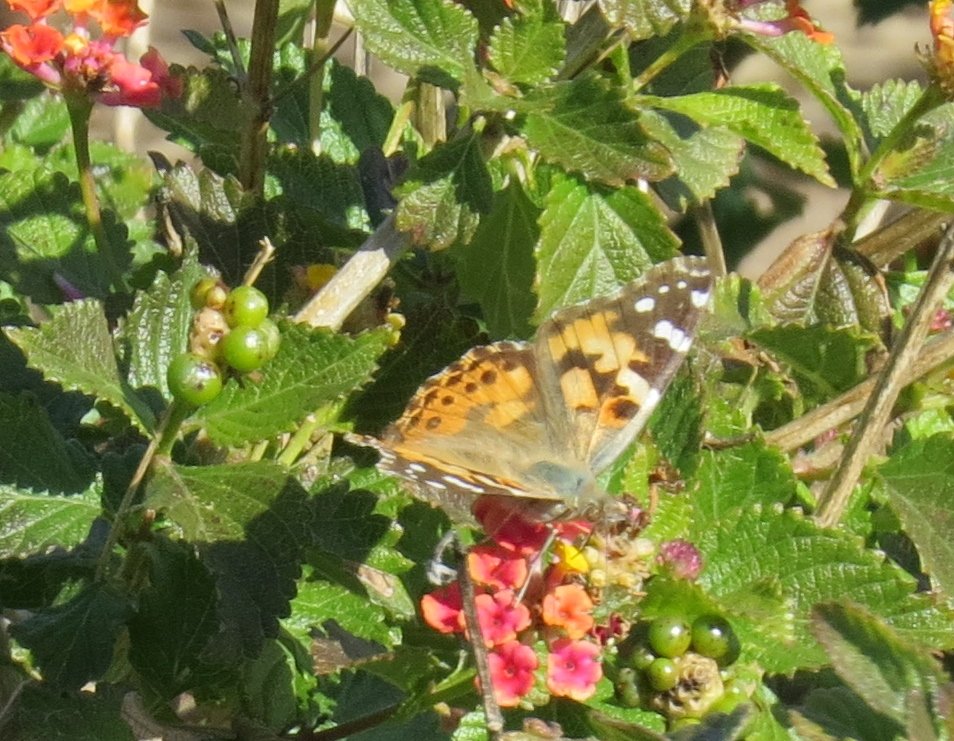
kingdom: Animalia
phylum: Arthropoda
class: Insecta
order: Lepidoptera
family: Nymphalidae
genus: Vanessa
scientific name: Vanessa cardui
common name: Painted Lady
